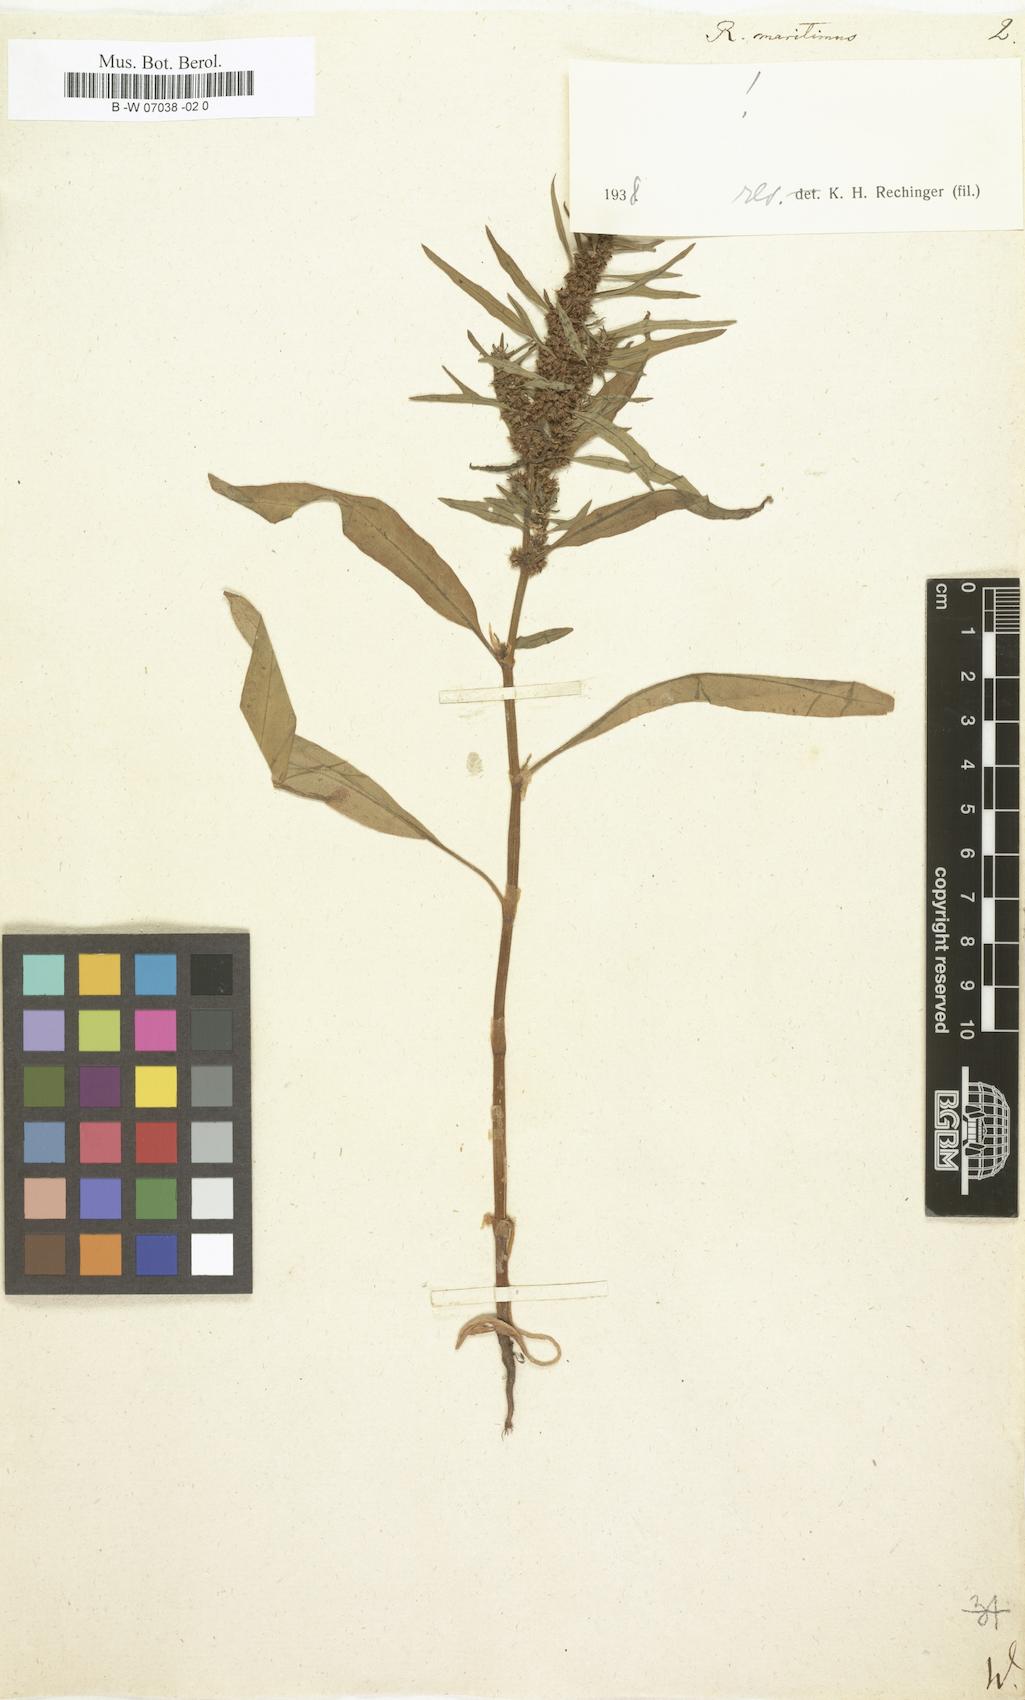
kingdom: Plantae
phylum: Tracheophyta
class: Magnoliopsida
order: Caryophyllales
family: Polygonaceae
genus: Rumex
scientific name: Rumex maritimus
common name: Golden dock
